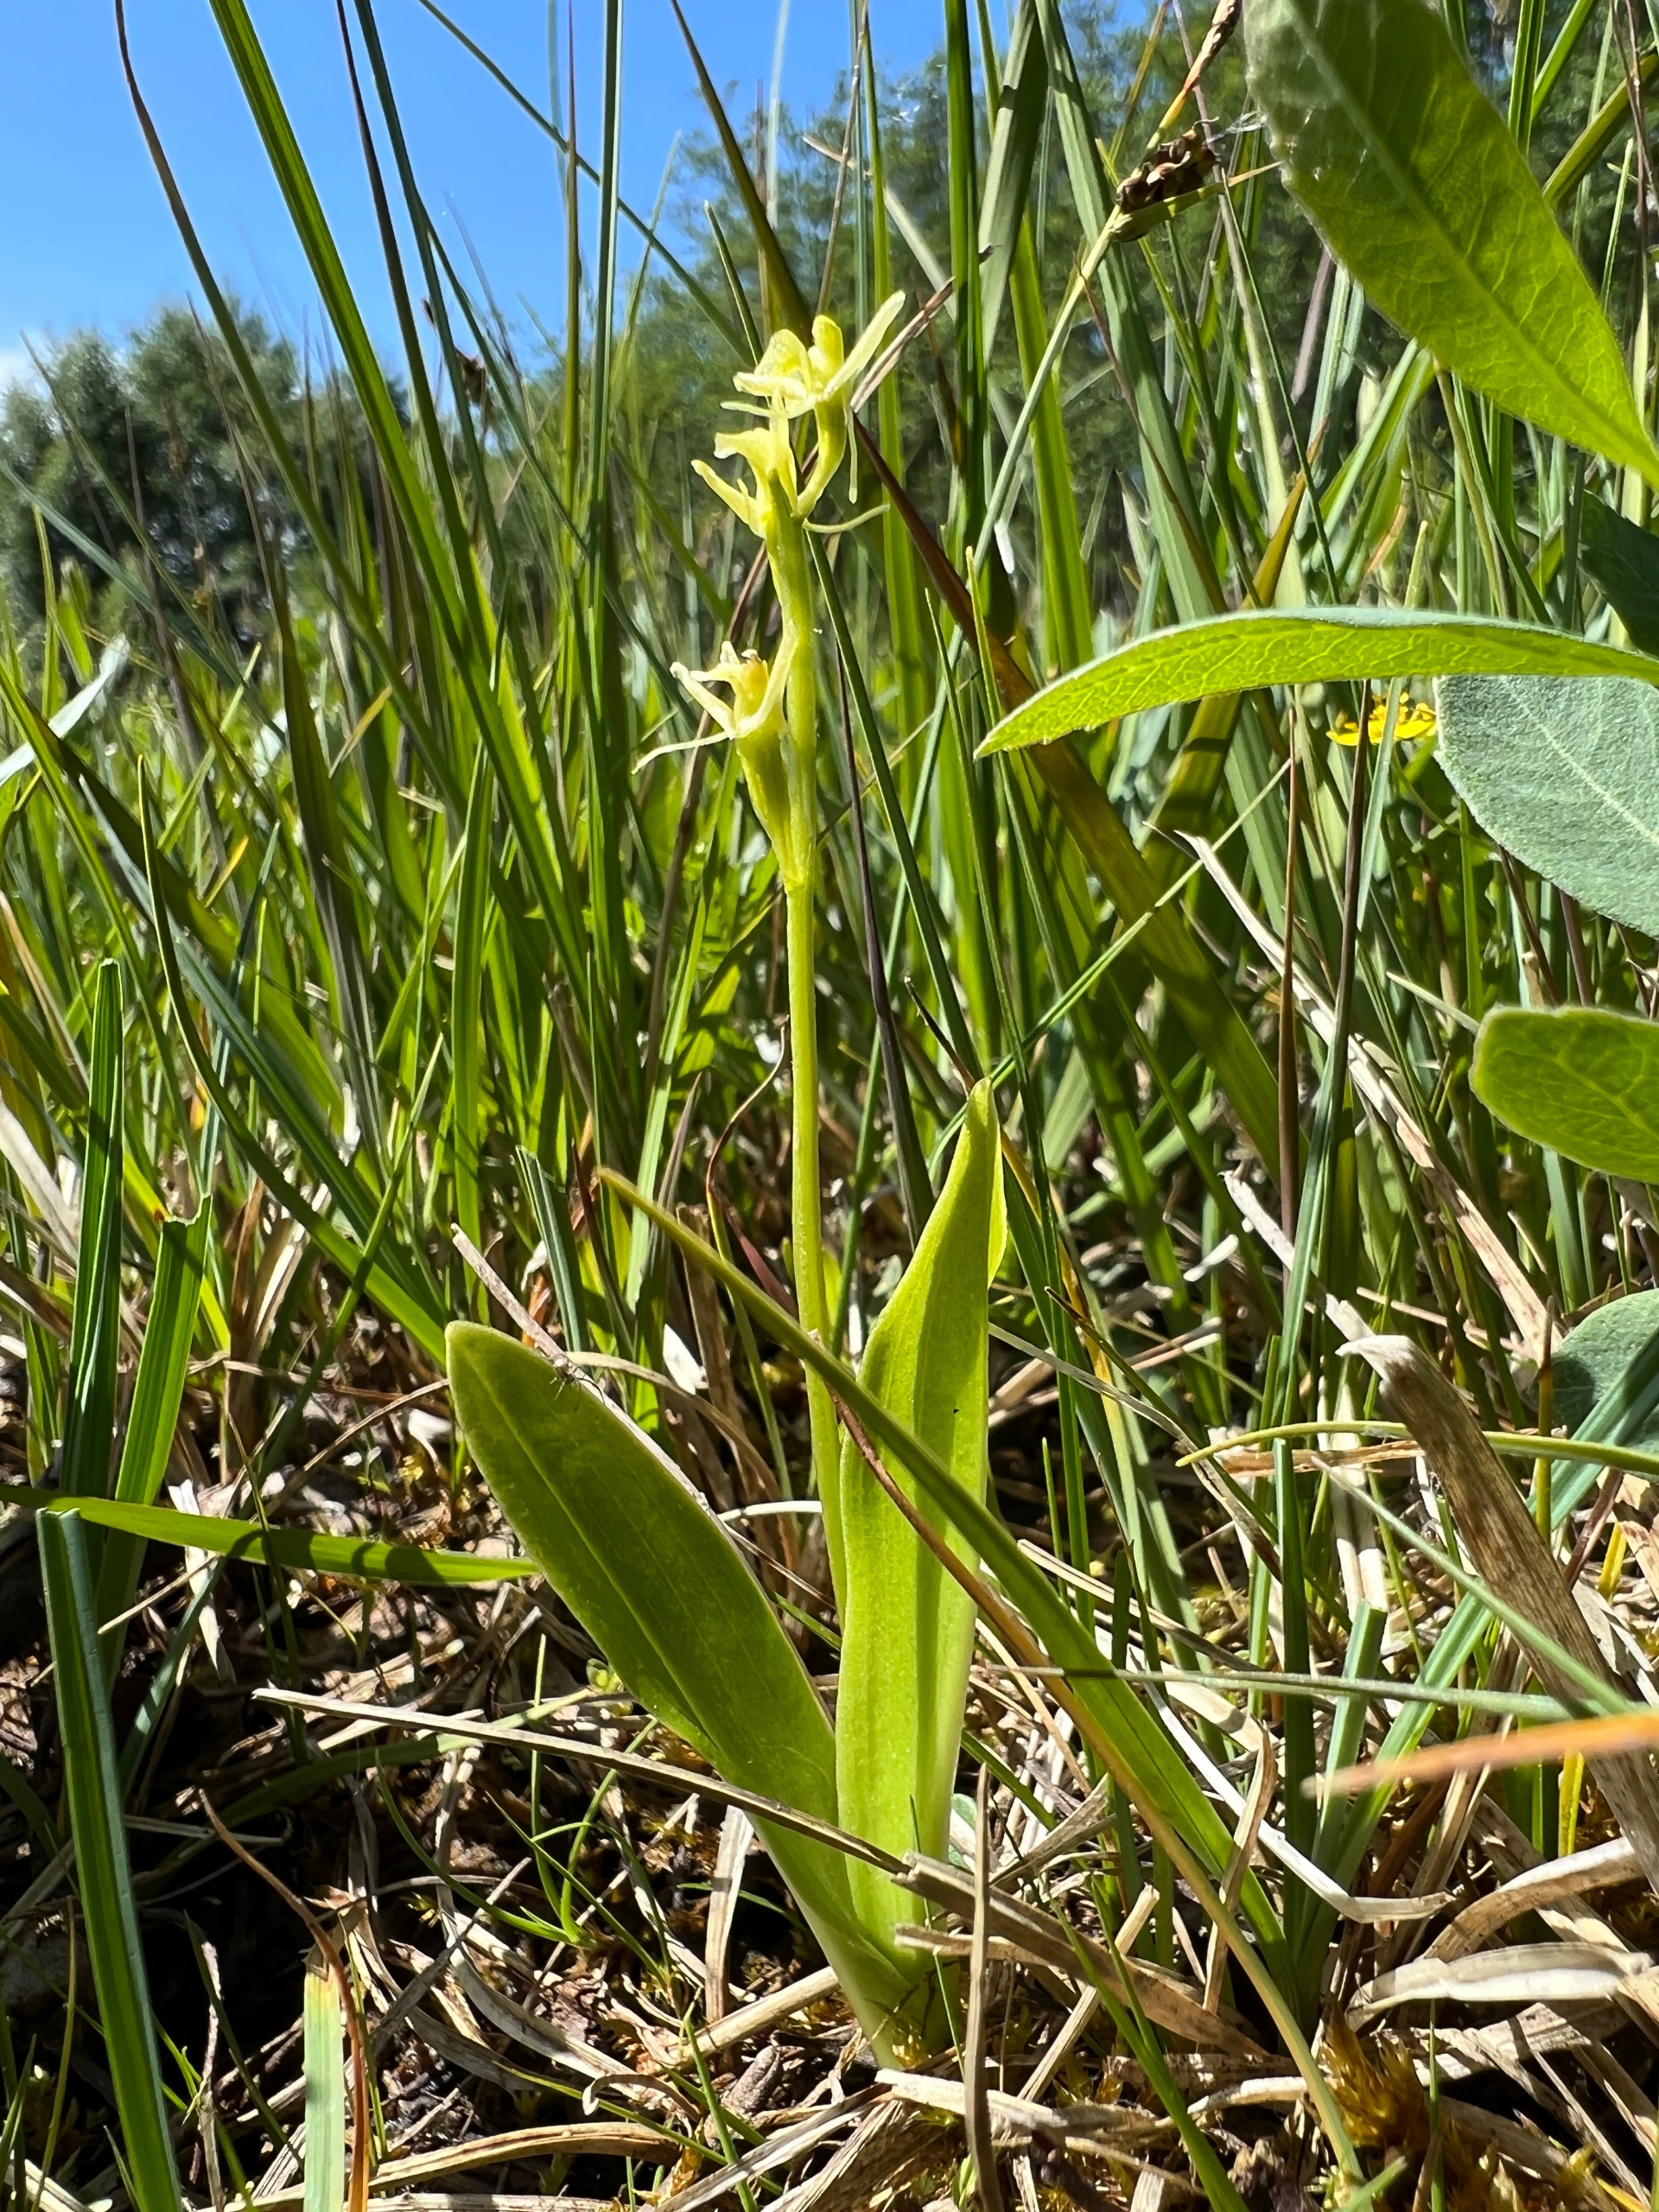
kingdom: Animalia
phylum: Arthropoda
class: Insecta
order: Coleoptera
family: Curculionidae
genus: Liparis
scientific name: Liparis loeselii
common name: Mygblomst
